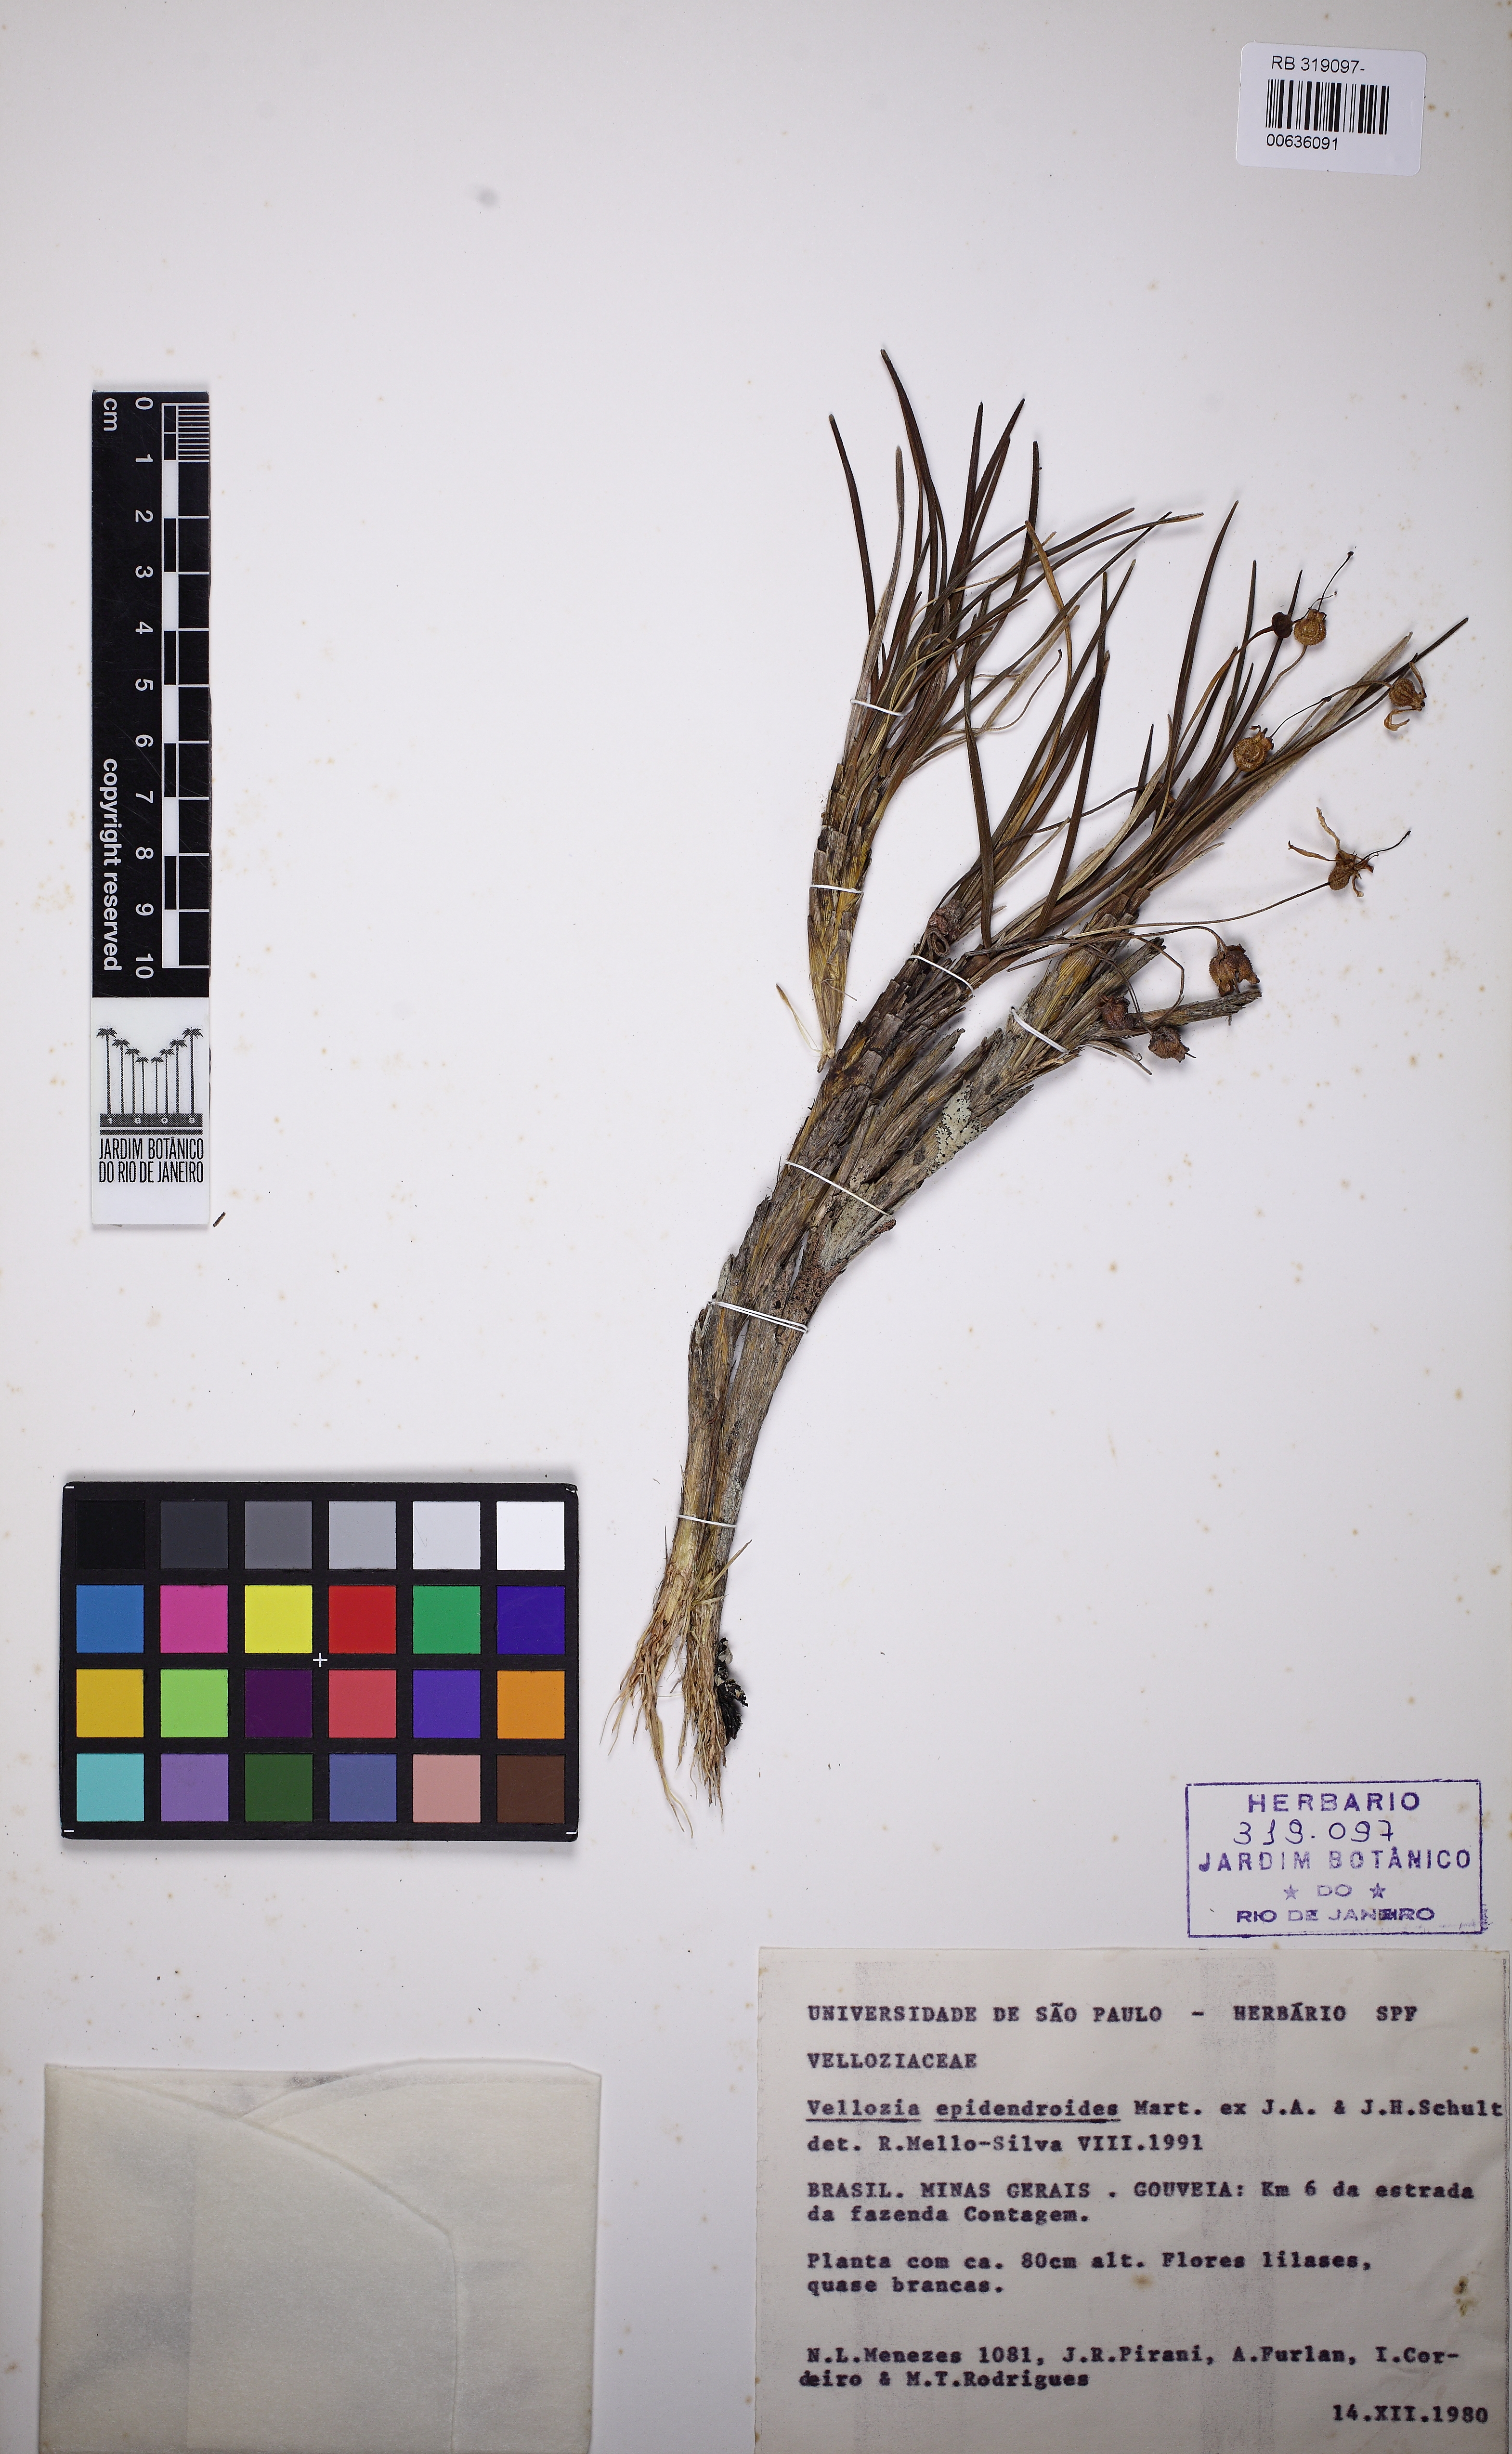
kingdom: Plantae
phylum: Tracheophyta
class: Liliopsida
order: Pandanales
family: Velloziaceae
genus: Vellozia
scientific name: Vellozia epidendroides
